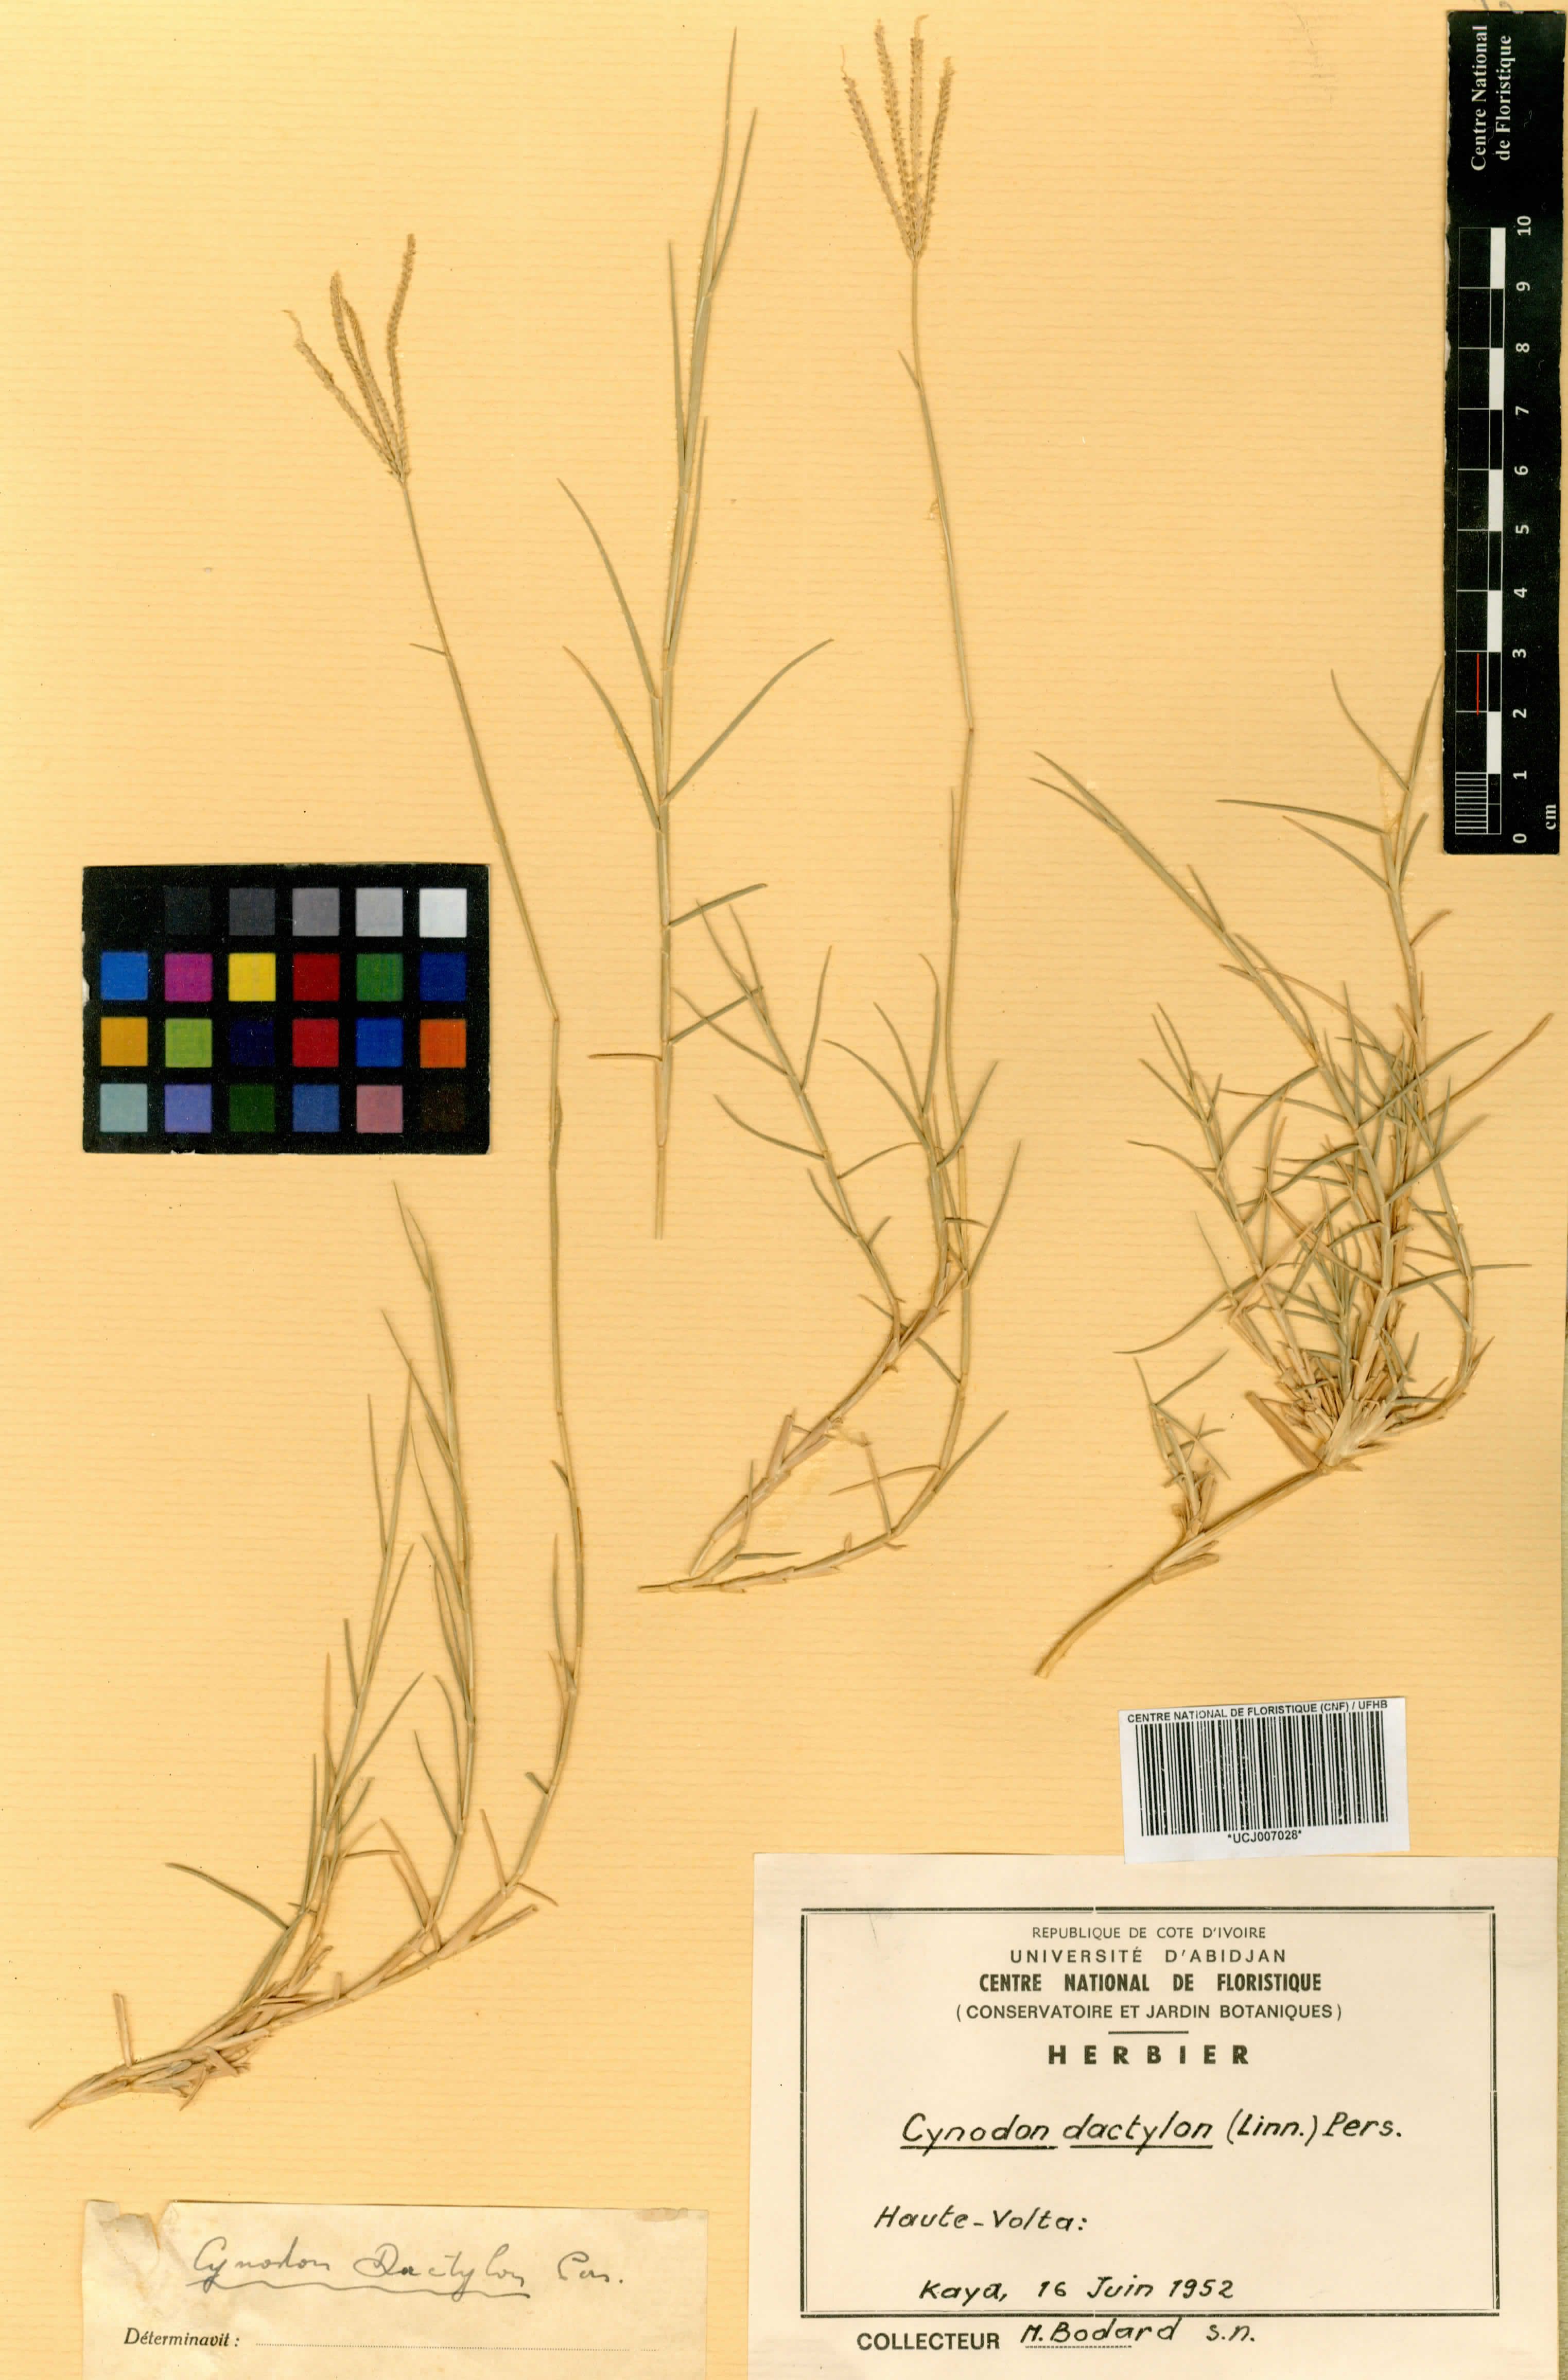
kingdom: Plantae
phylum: Tracheophyta
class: Liliopsida
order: Poales
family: Poaceae
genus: Cynodon
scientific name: Cynodon dactylon
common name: Bermuda grass
